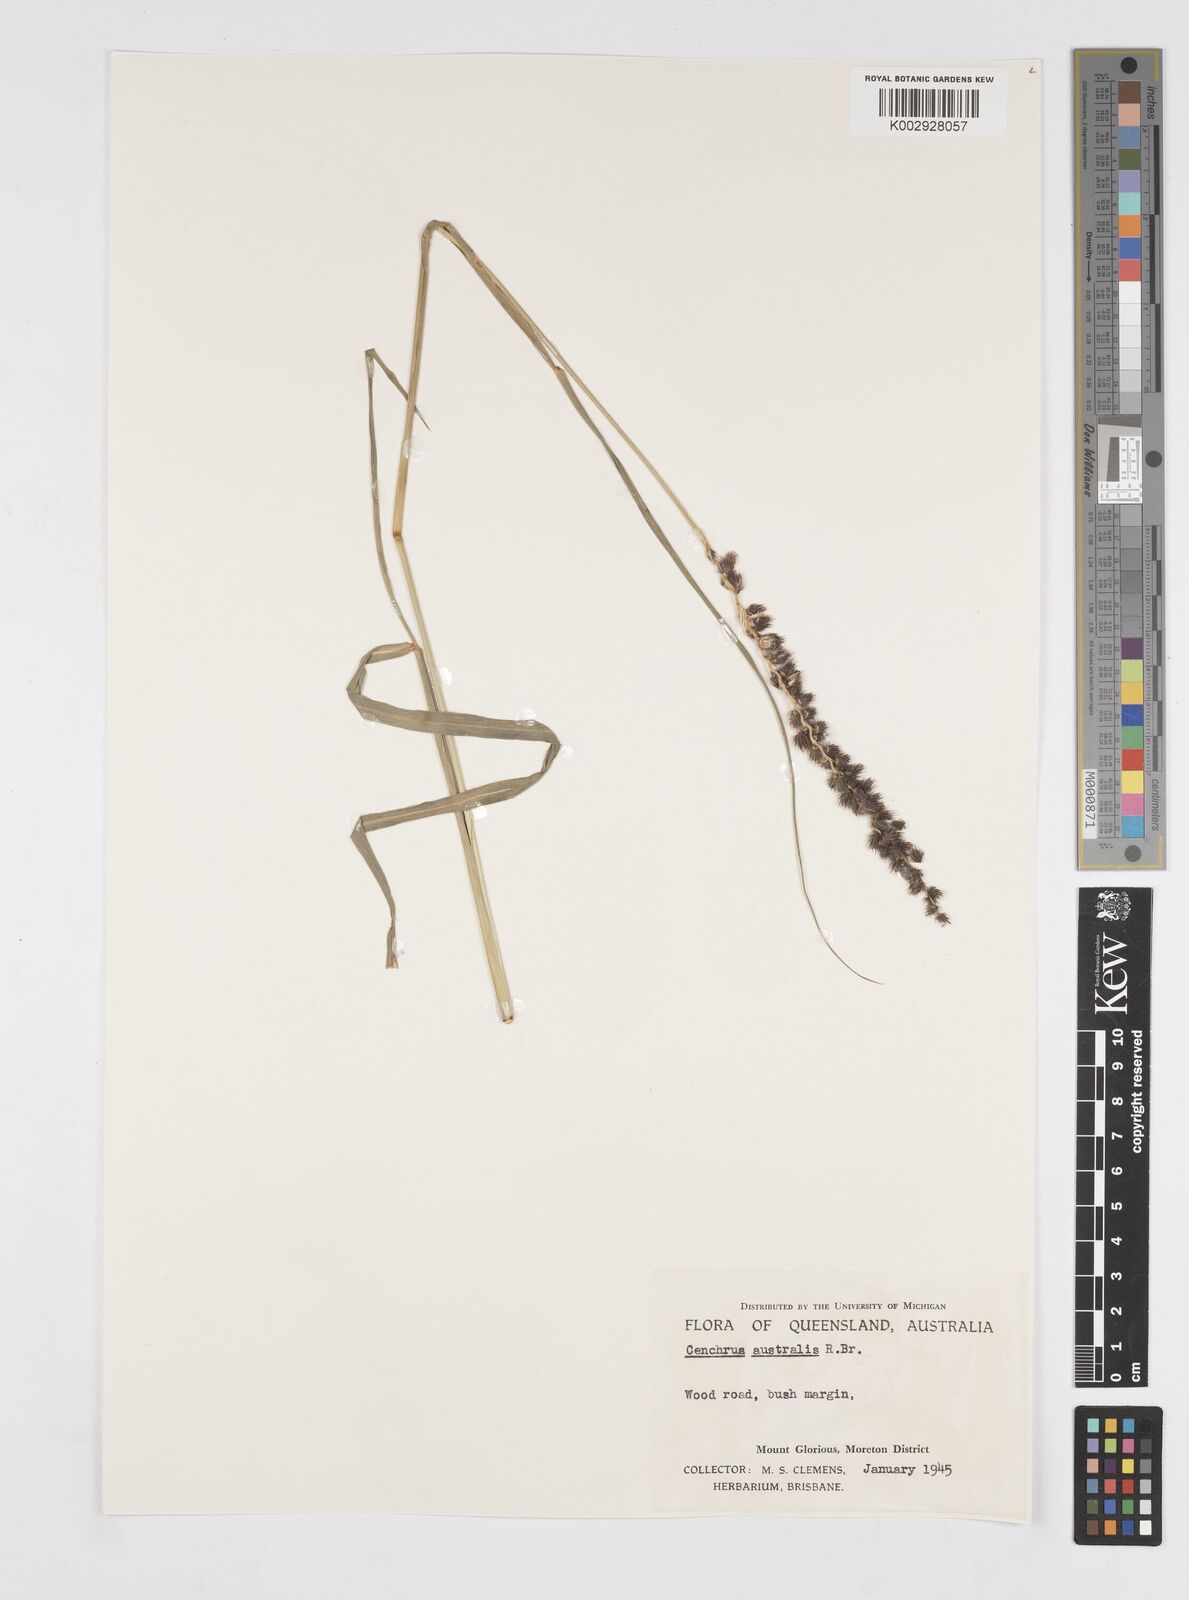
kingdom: Plantae
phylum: Tracheophyta
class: Liliopsida
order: Poales
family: Poaceae
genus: Cenchrus
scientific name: Cenchrus caliculatus
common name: Large bur grass
